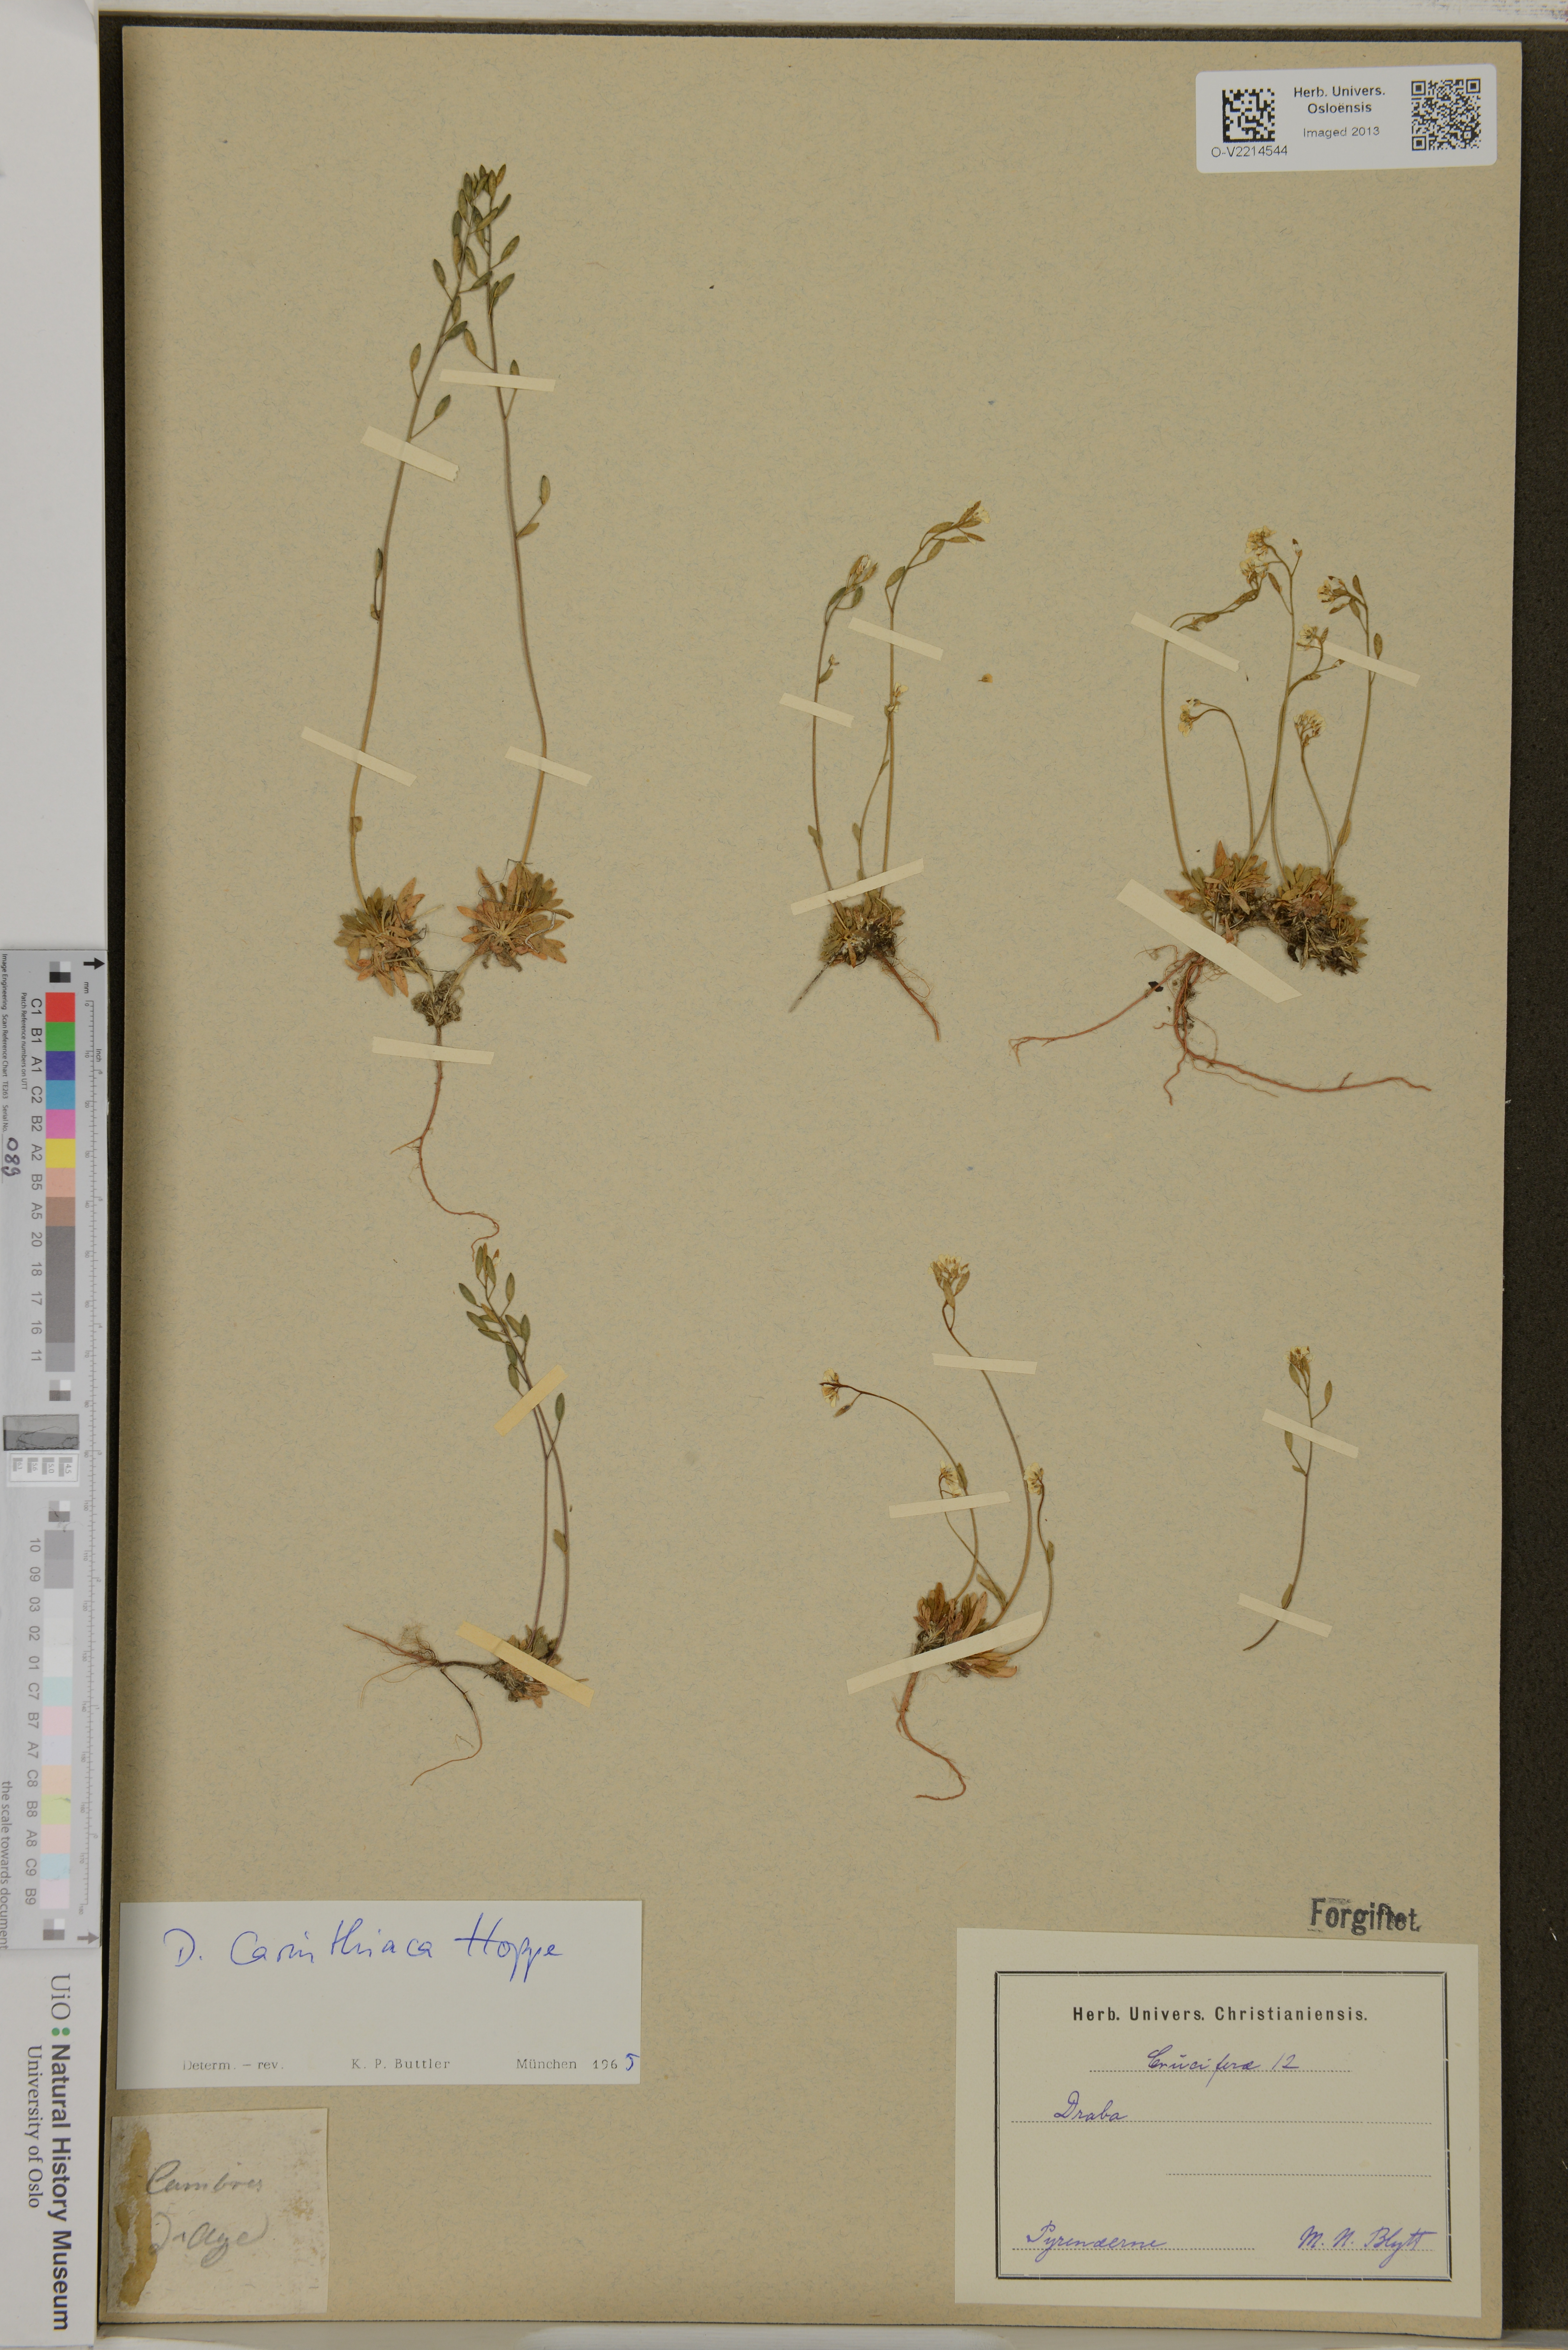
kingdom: Plantae
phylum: Tracheophyta
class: Magnoliopsida
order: Brassicales
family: Brassicaceae
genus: Draba
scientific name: Draba siliquosa
